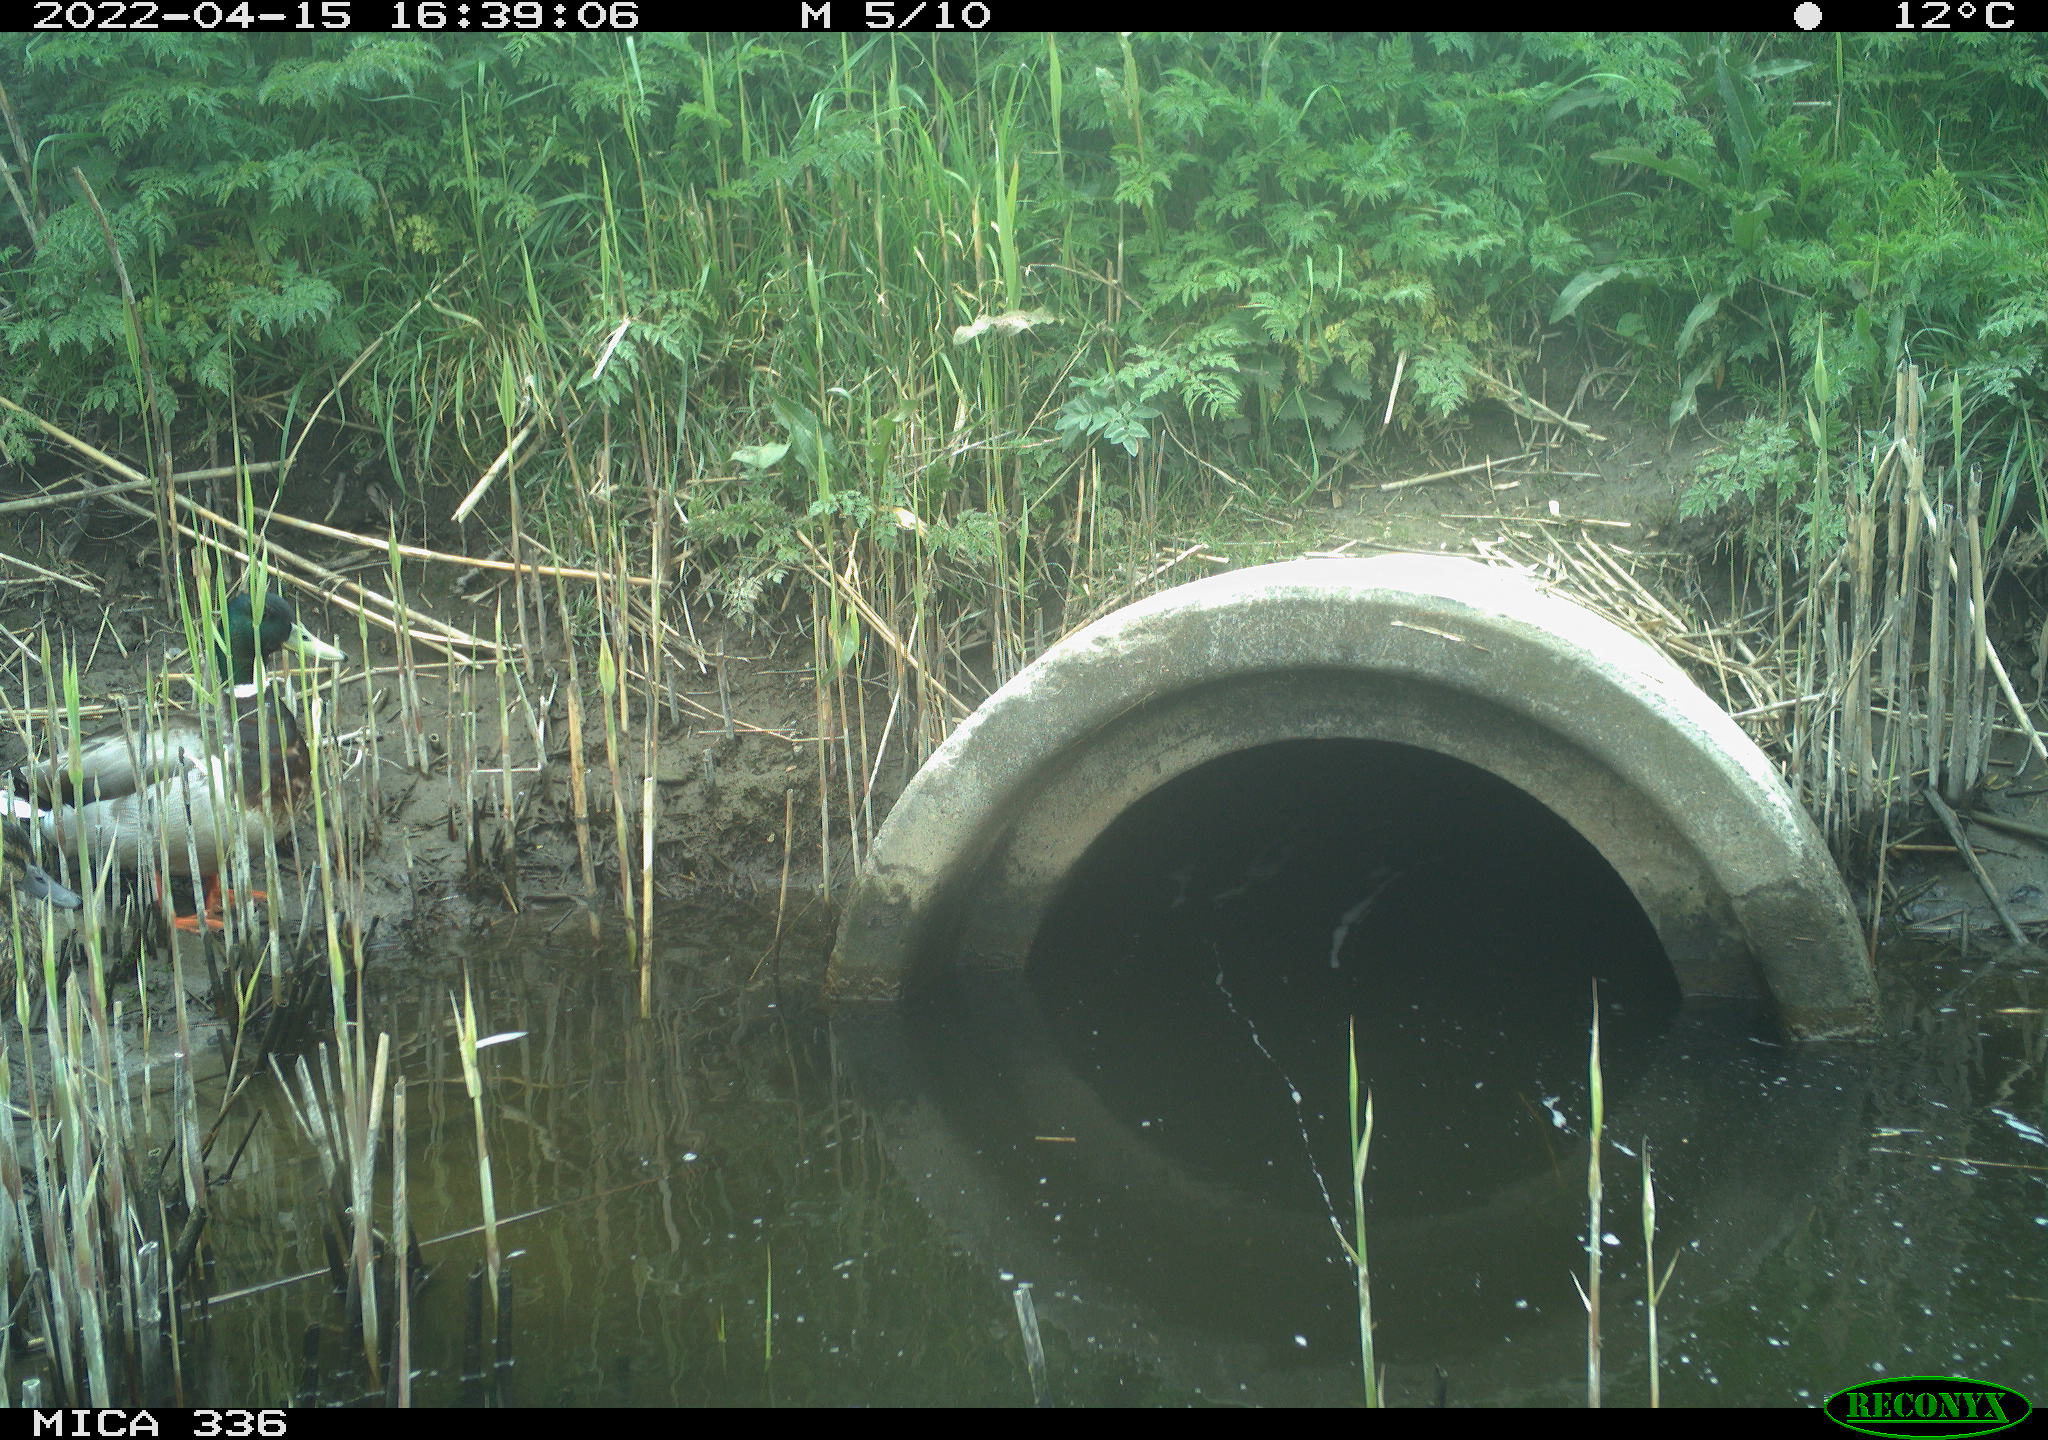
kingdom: Animalia
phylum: Chordata
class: Aves
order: Anseriformes
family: Anatidae
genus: Anas
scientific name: Anas platyrhynchos
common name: Mallard
